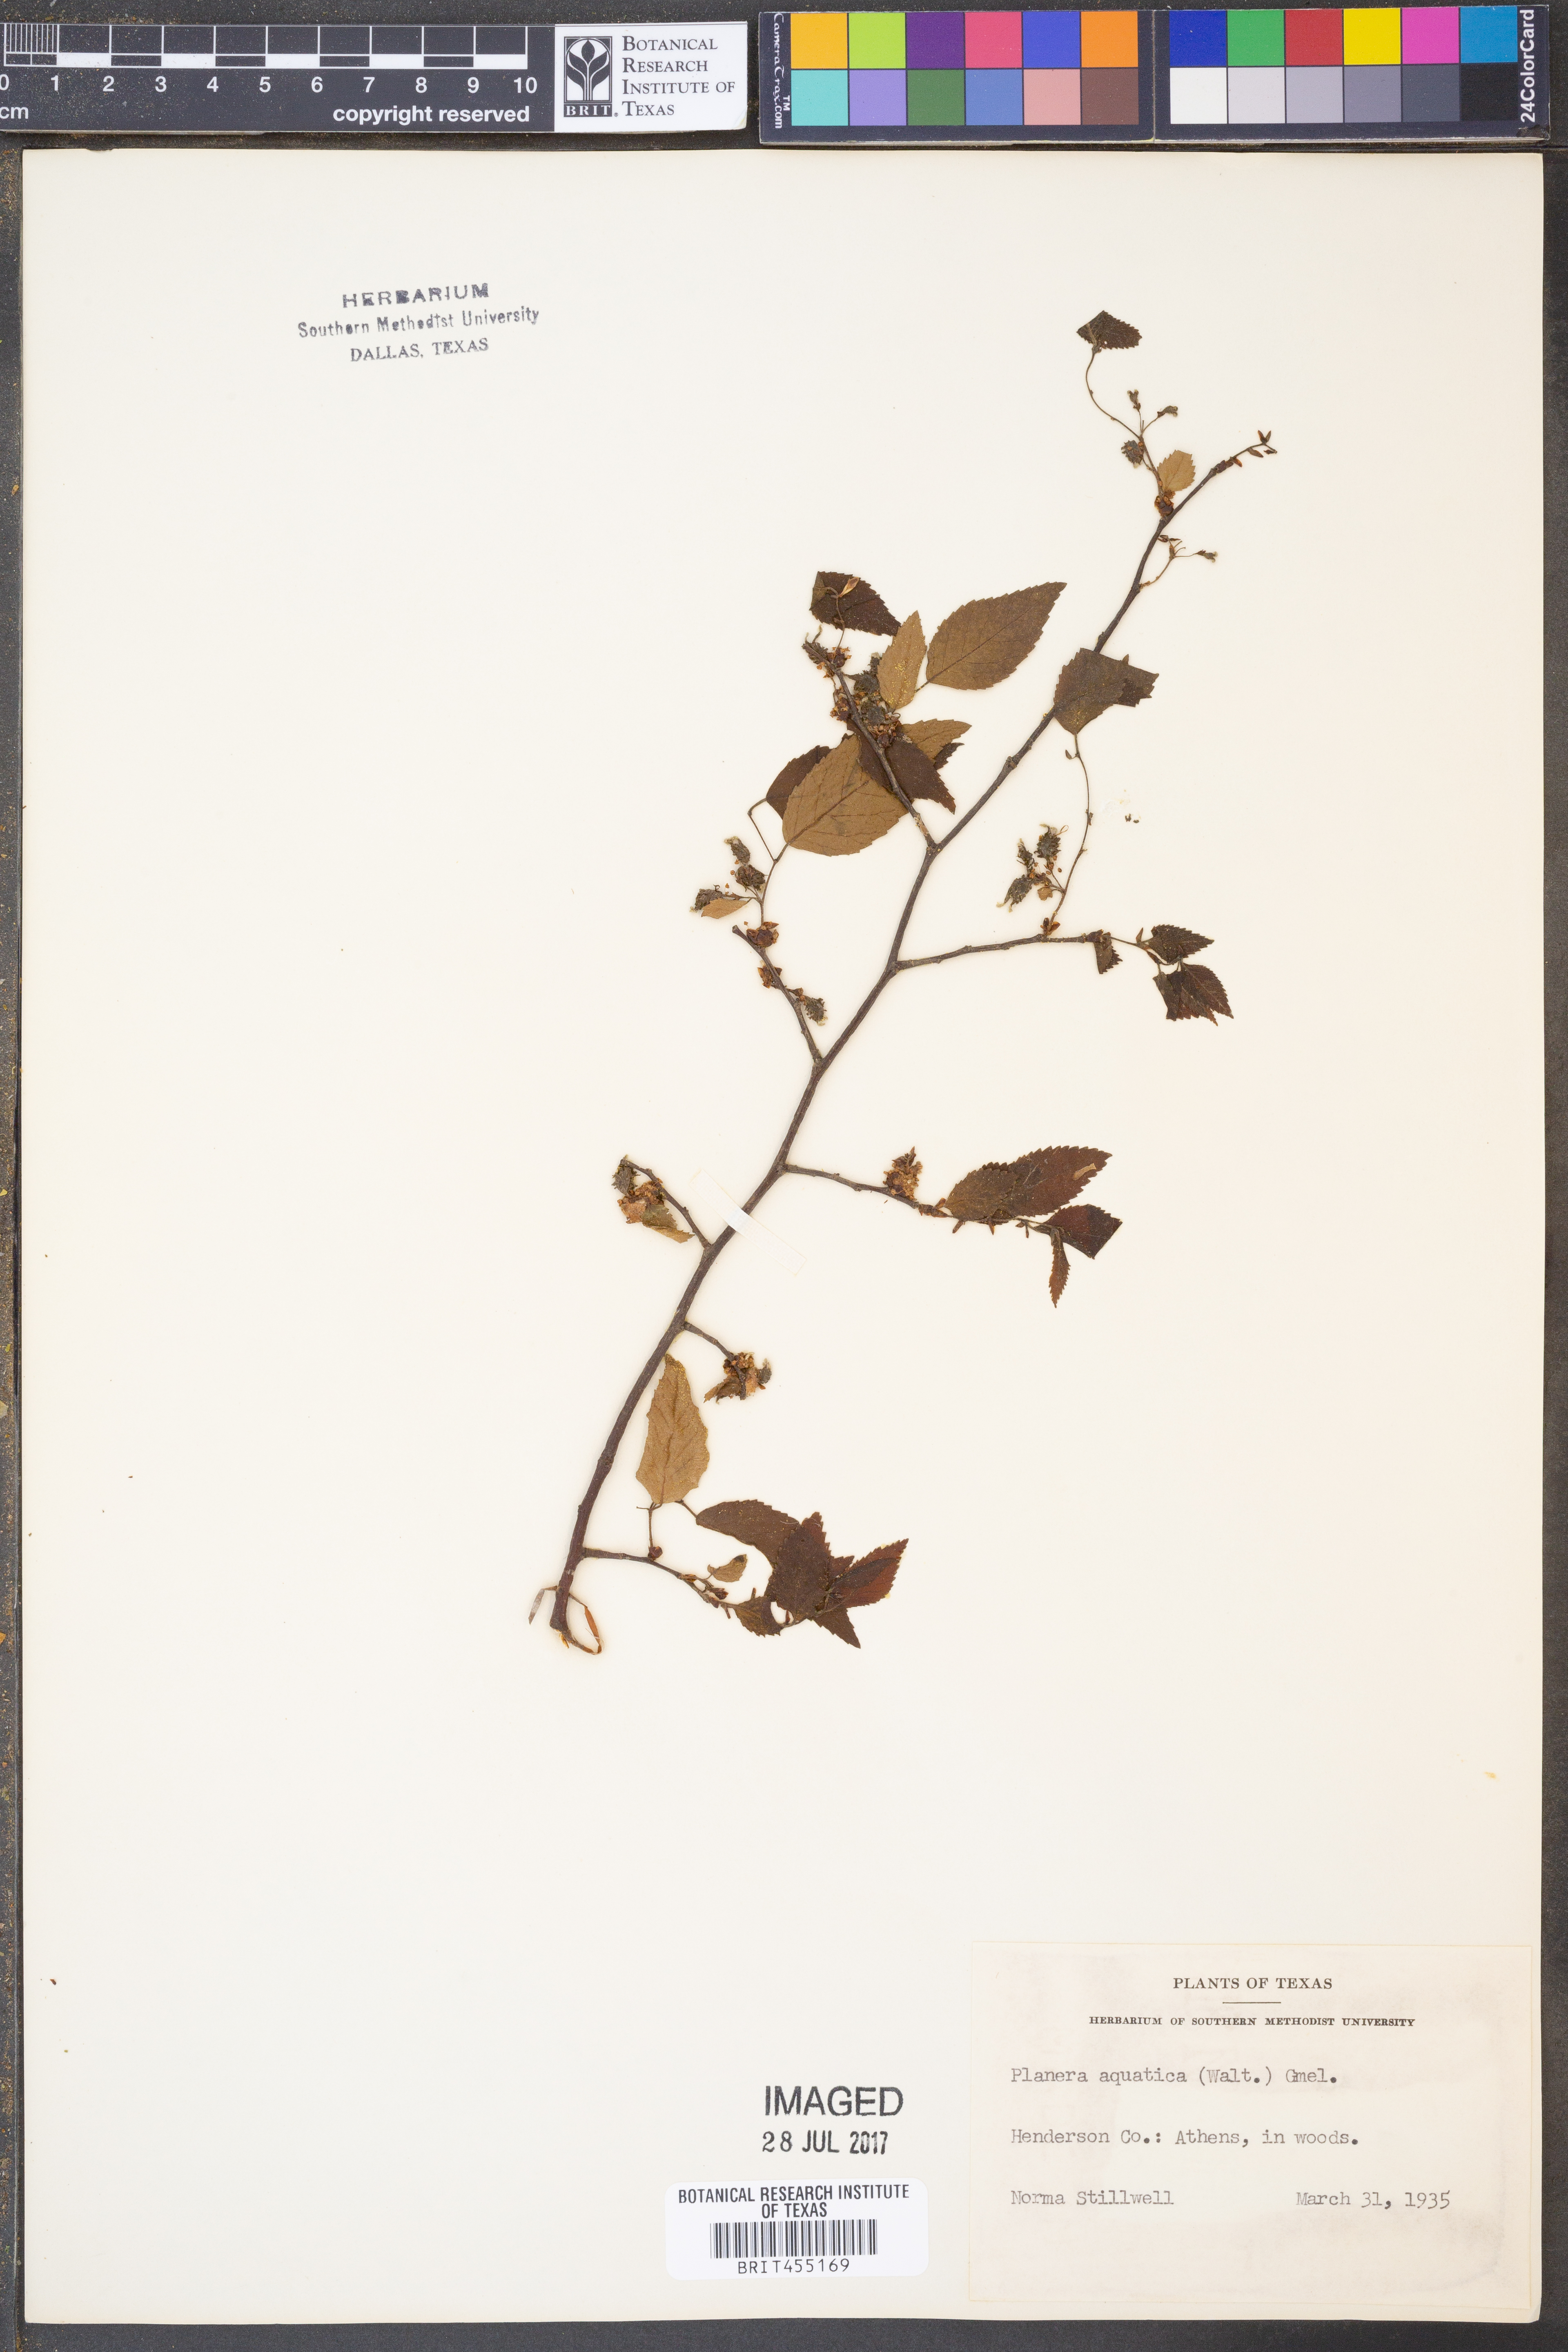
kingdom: Plantae
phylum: Tracheophyta
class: Magnoliopsida
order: Rosales
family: Ulmaceae
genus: Planera
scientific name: Planera aquatica
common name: Water-elm
